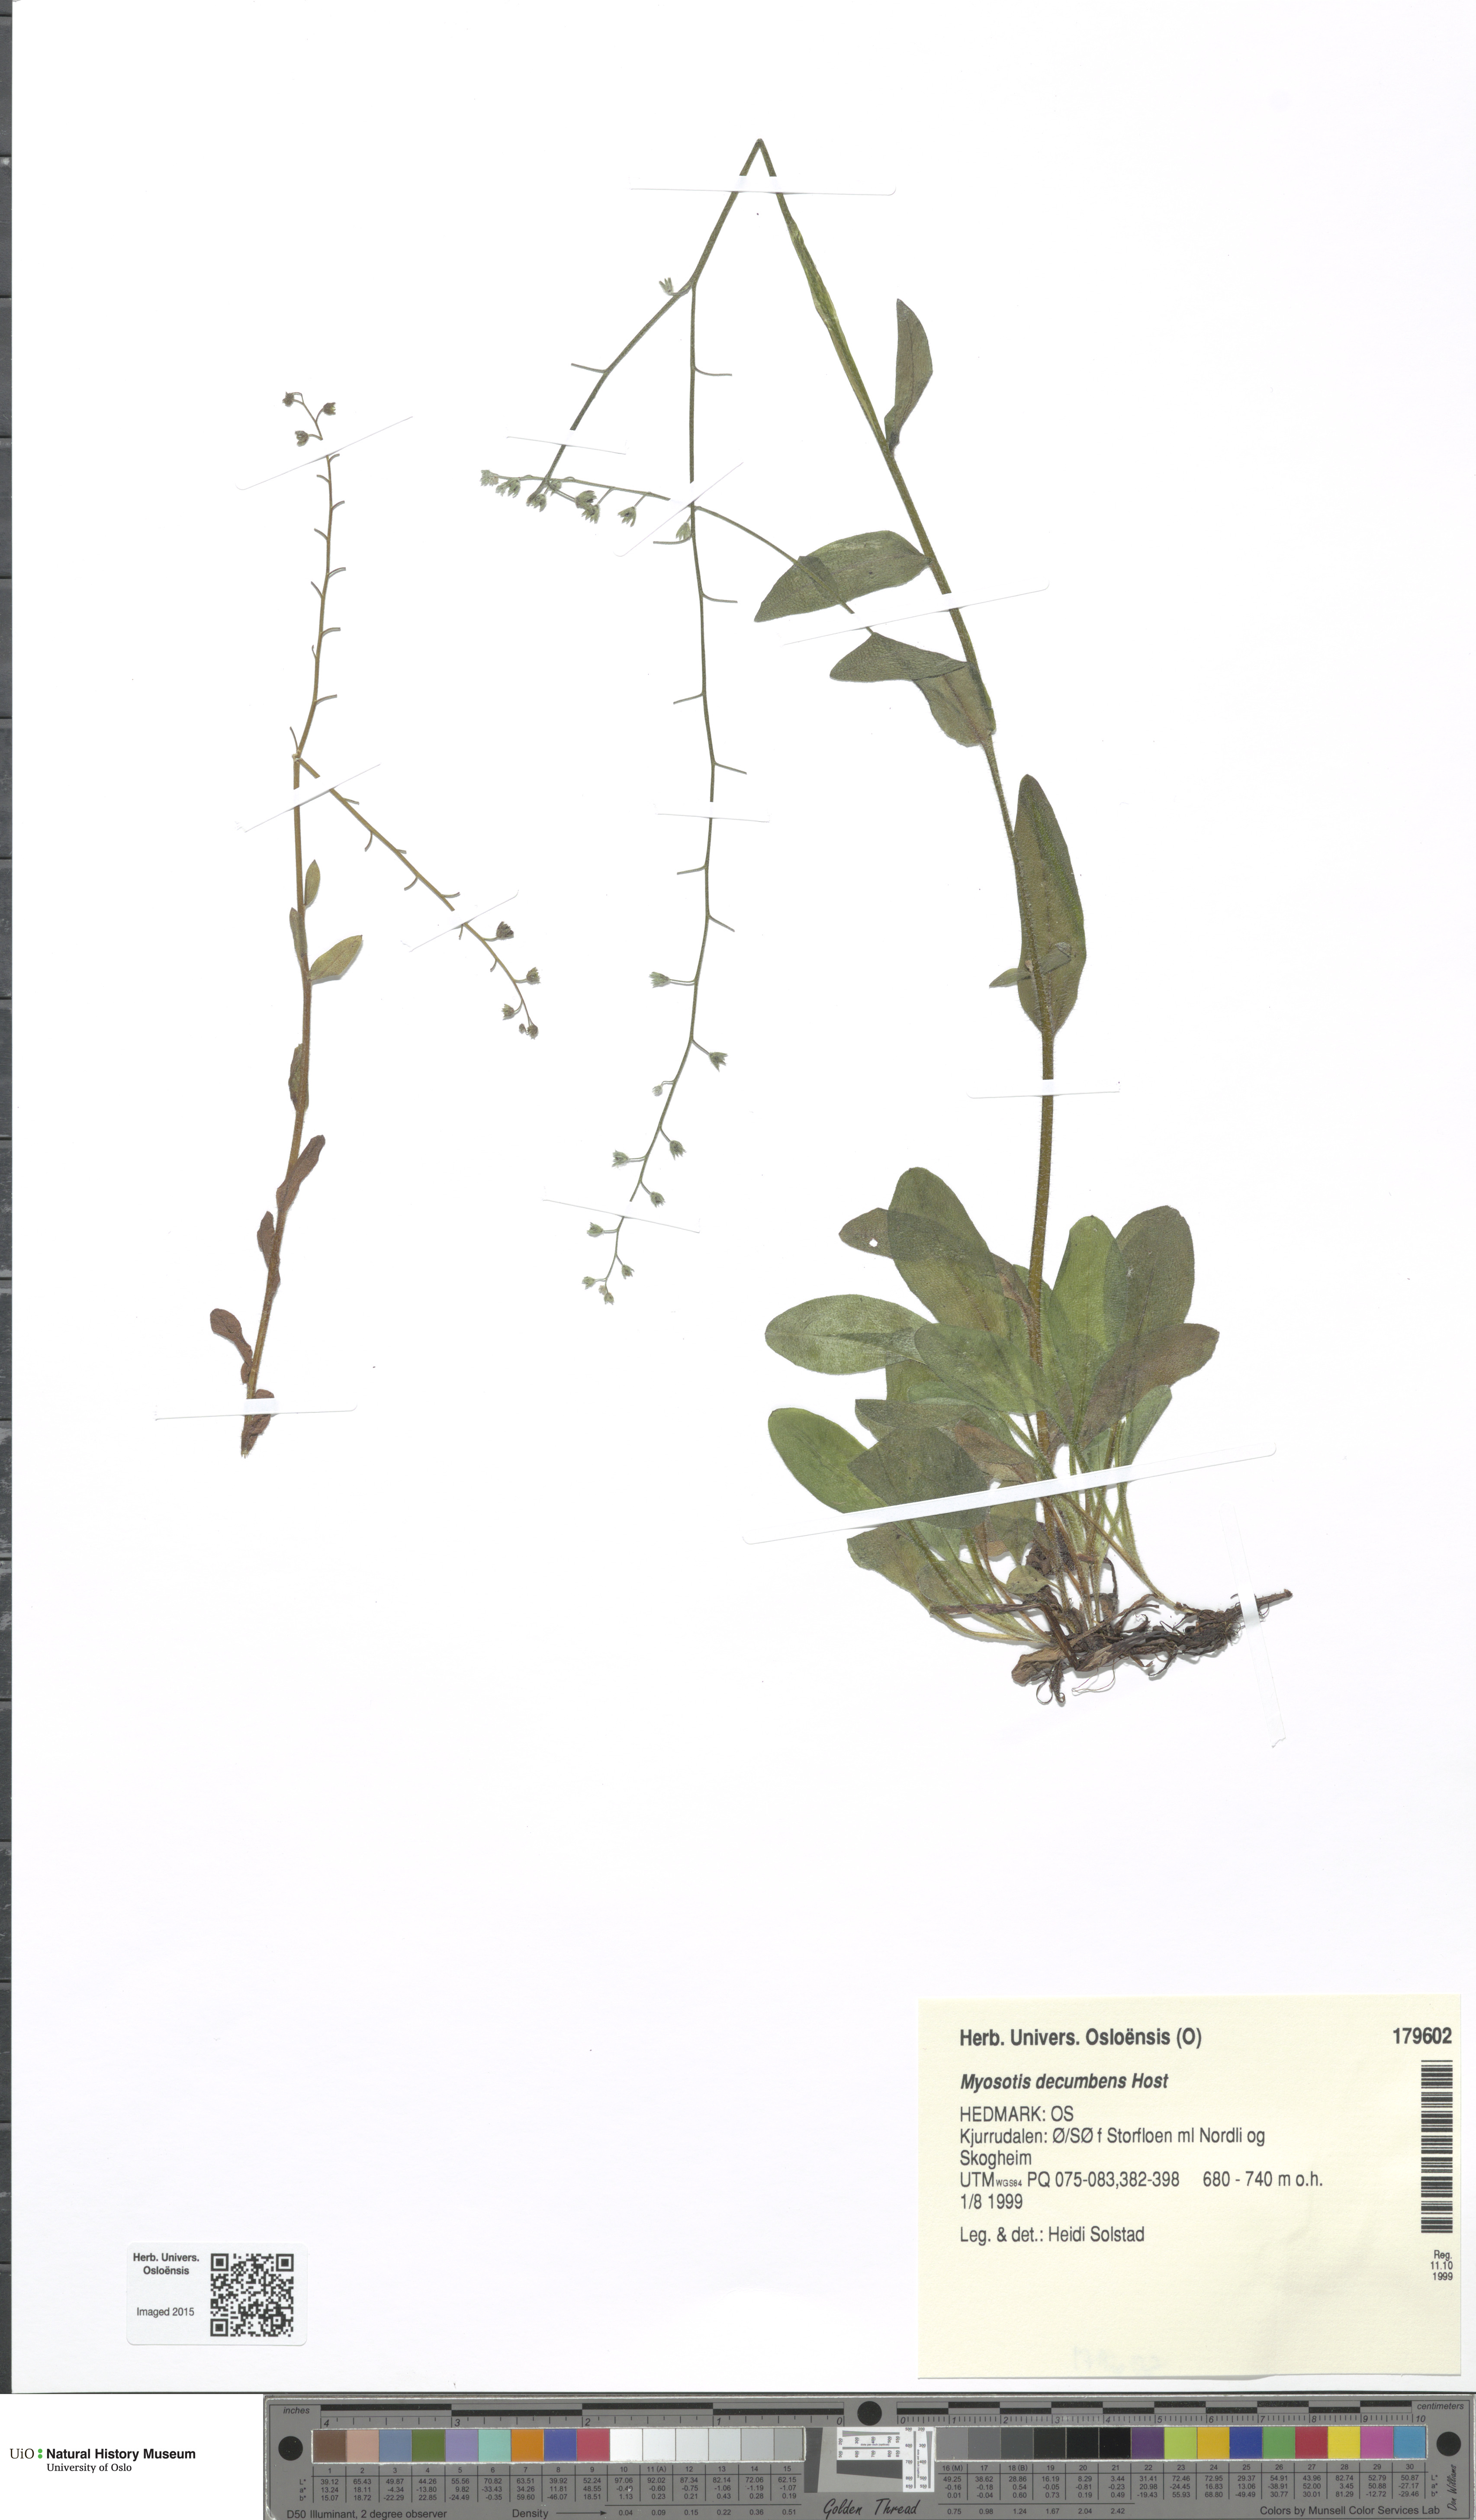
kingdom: Plantae
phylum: Tracheophyta
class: Magnoliopsida
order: Boraginales
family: Boraginaceae
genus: Myosotis
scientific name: Myosotis decumbens
